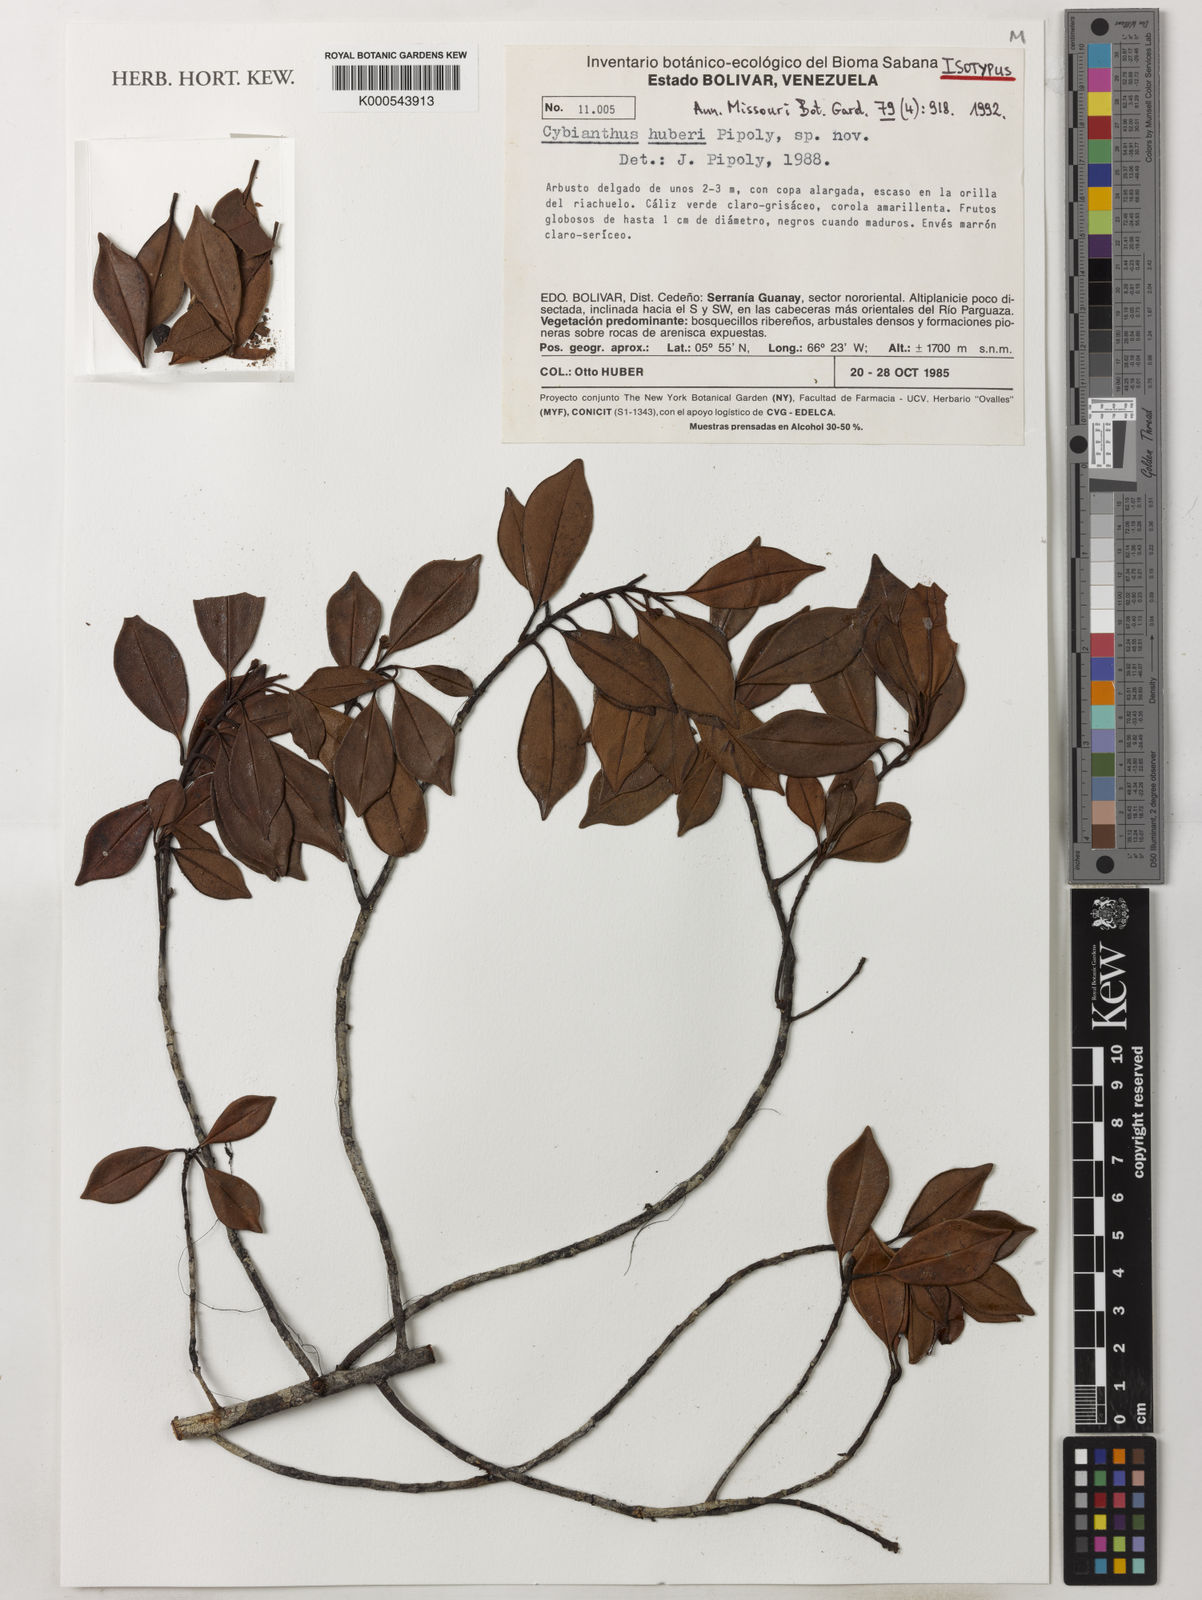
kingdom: Plantae
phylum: Tracheophyta
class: Magnoliopsida
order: Ericales
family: Primulaceae
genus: Cybianthus
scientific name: Cybianthus huberi
